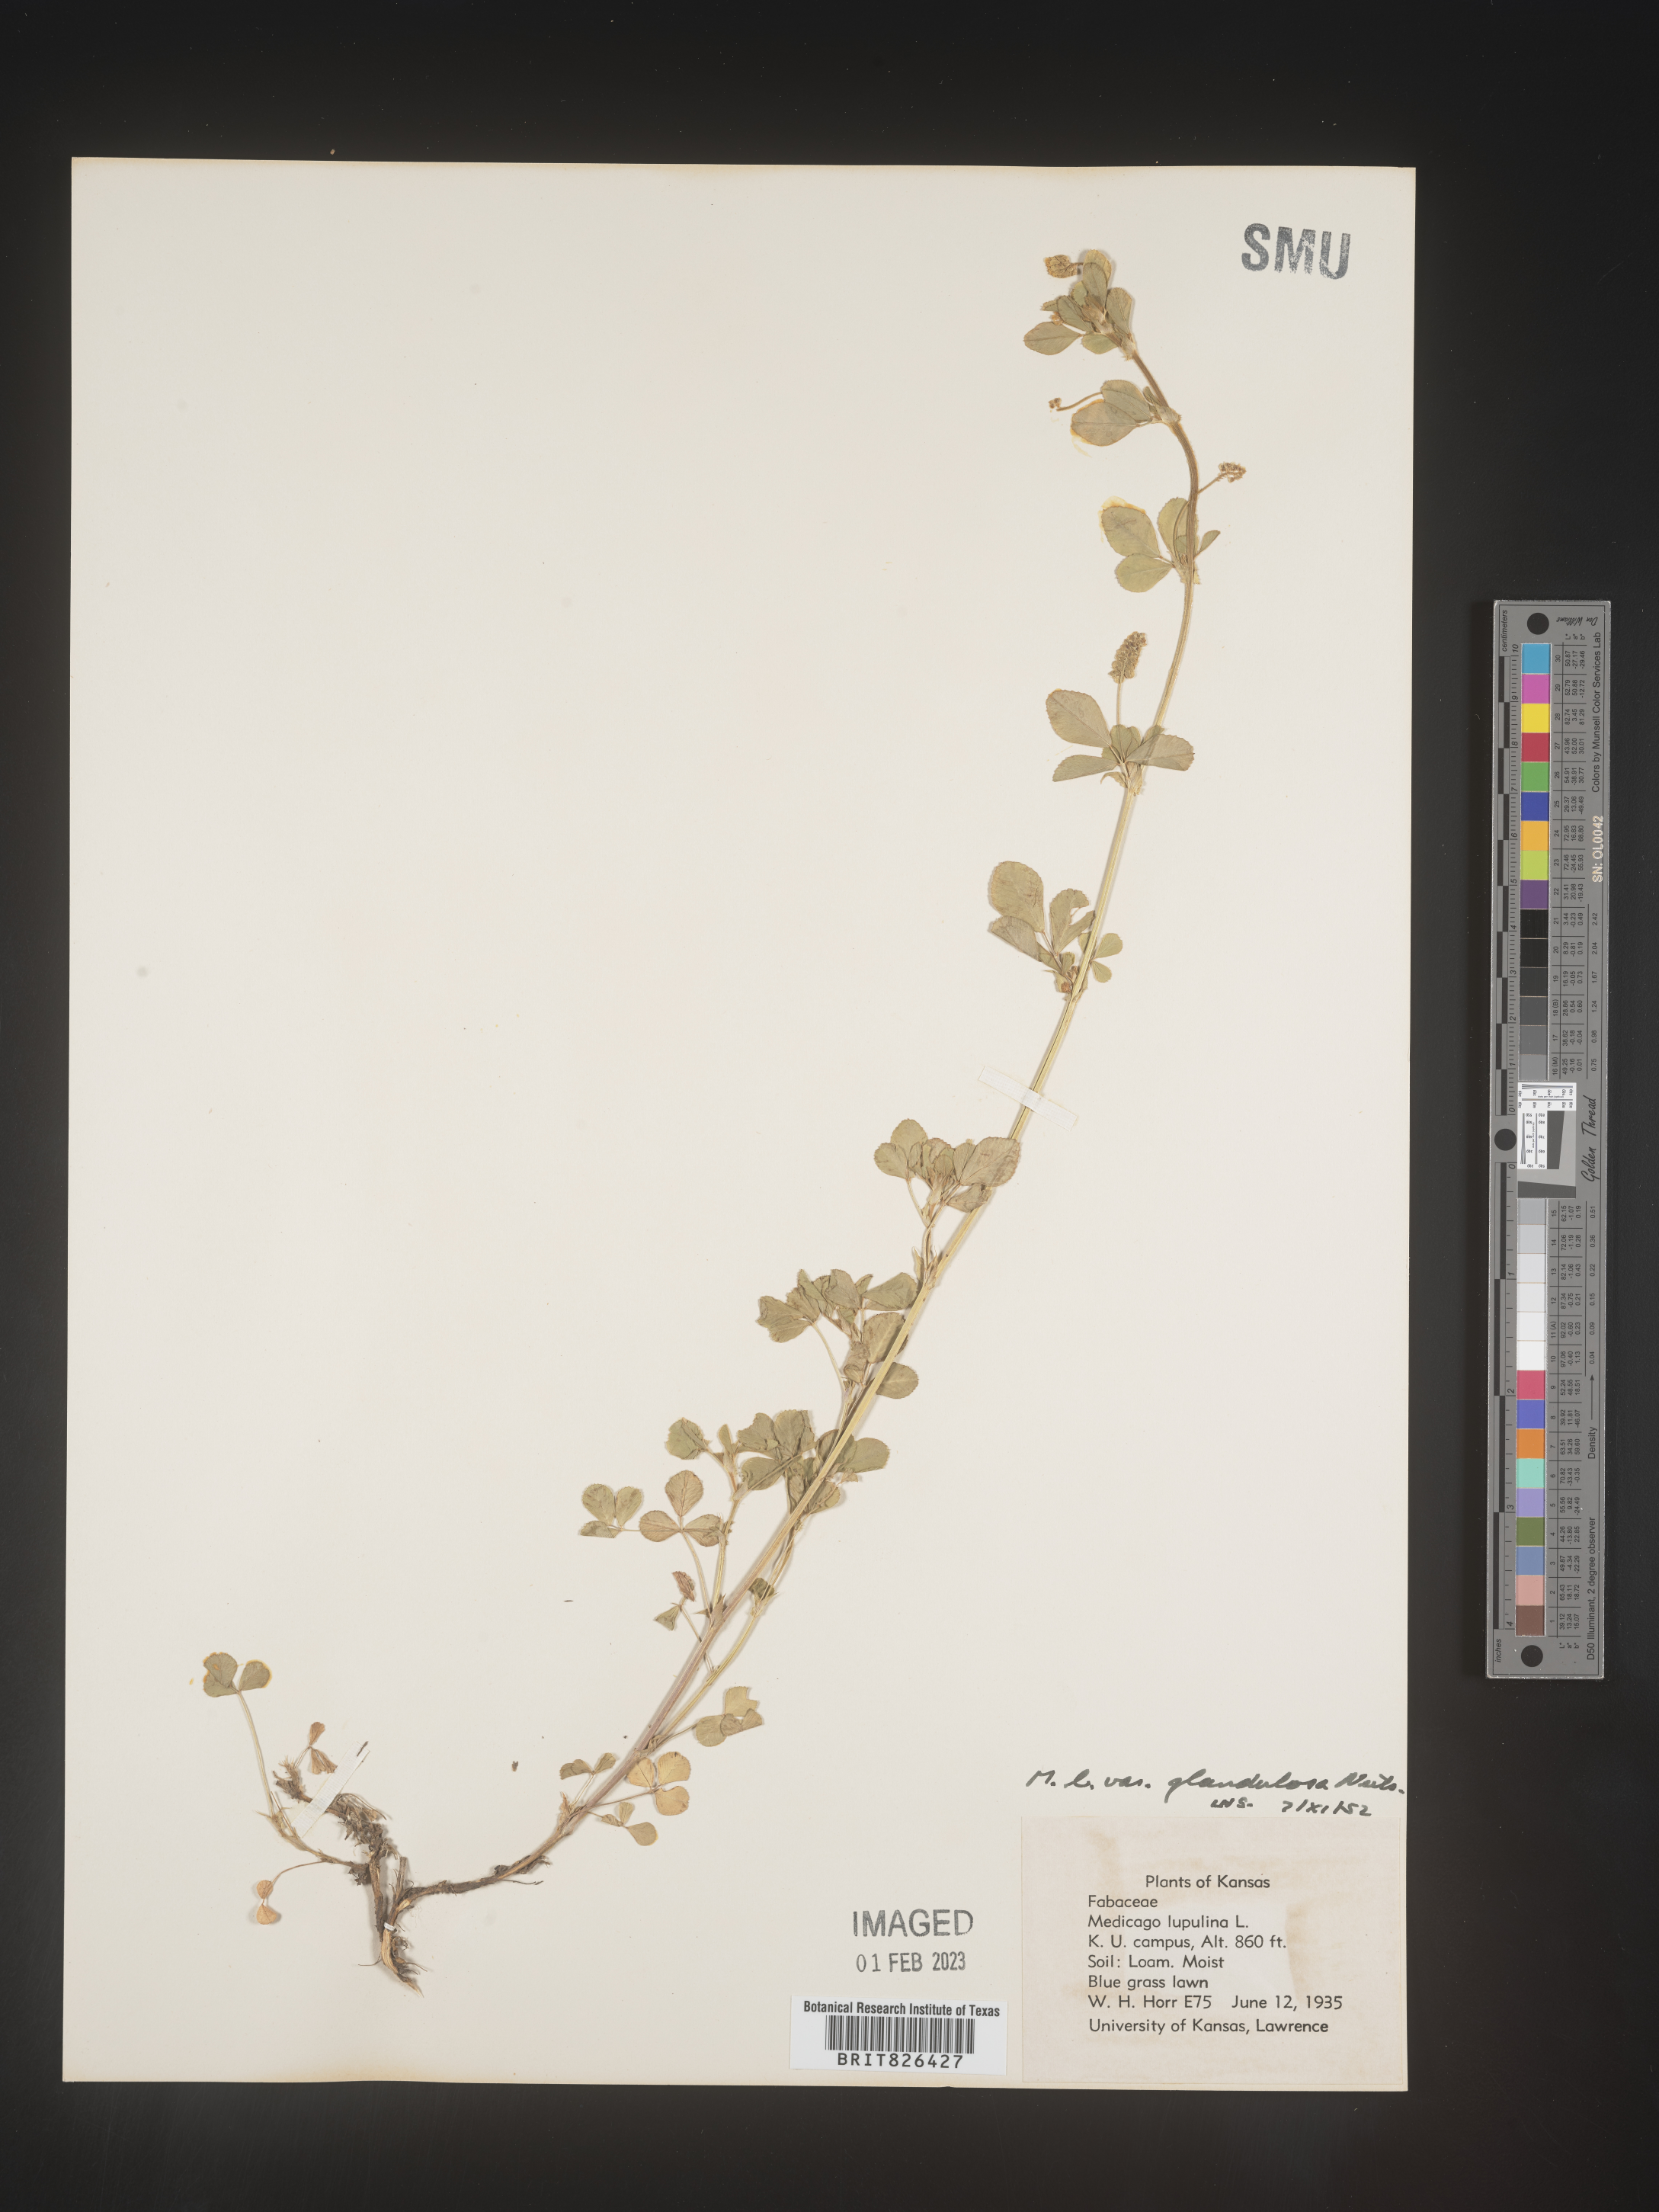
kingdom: Plantae
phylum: Tracheophyta
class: Magnoliopsida
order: Fabales
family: Fabaceae
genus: Medicago
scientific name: Medicago lupulina
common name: Black medick
